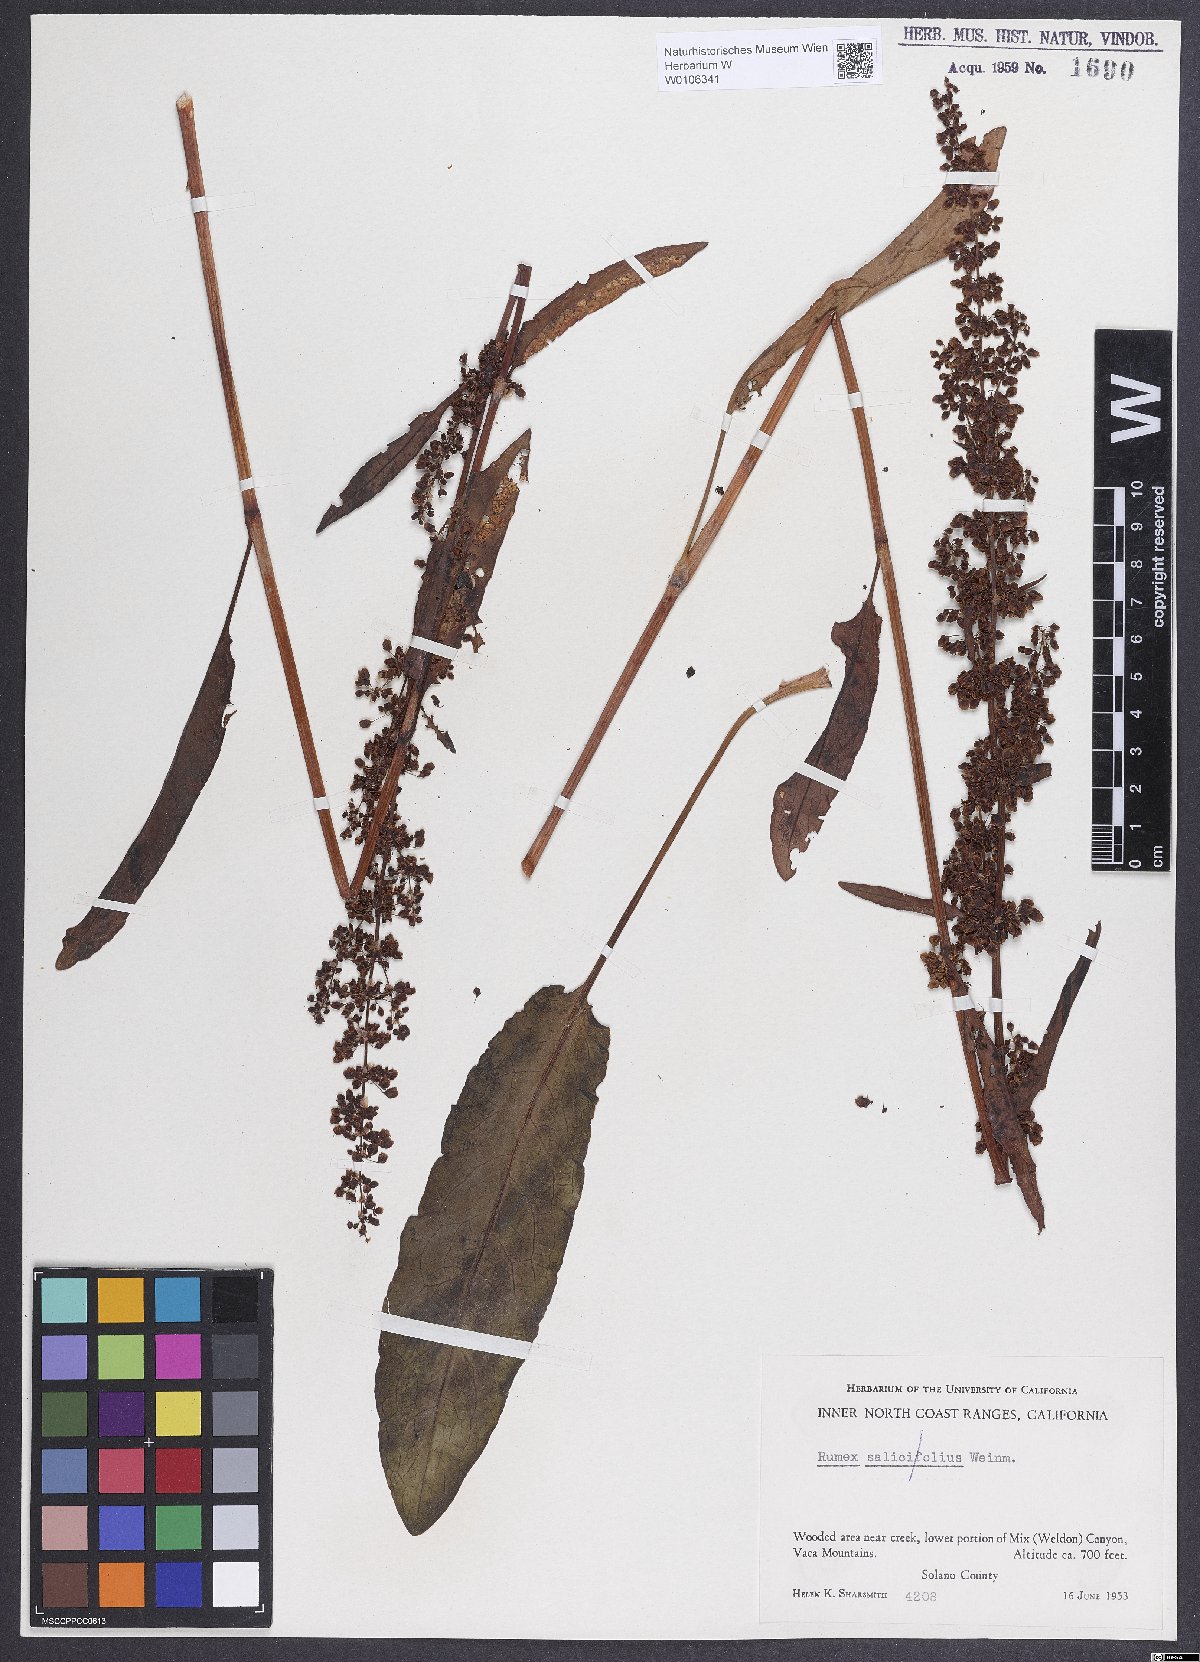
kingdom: Plantae
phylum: Tracheophyta
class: Magnoliopsida
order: Caryophyllales
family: Polygonaceae
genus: Rumex
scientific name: Rumex
